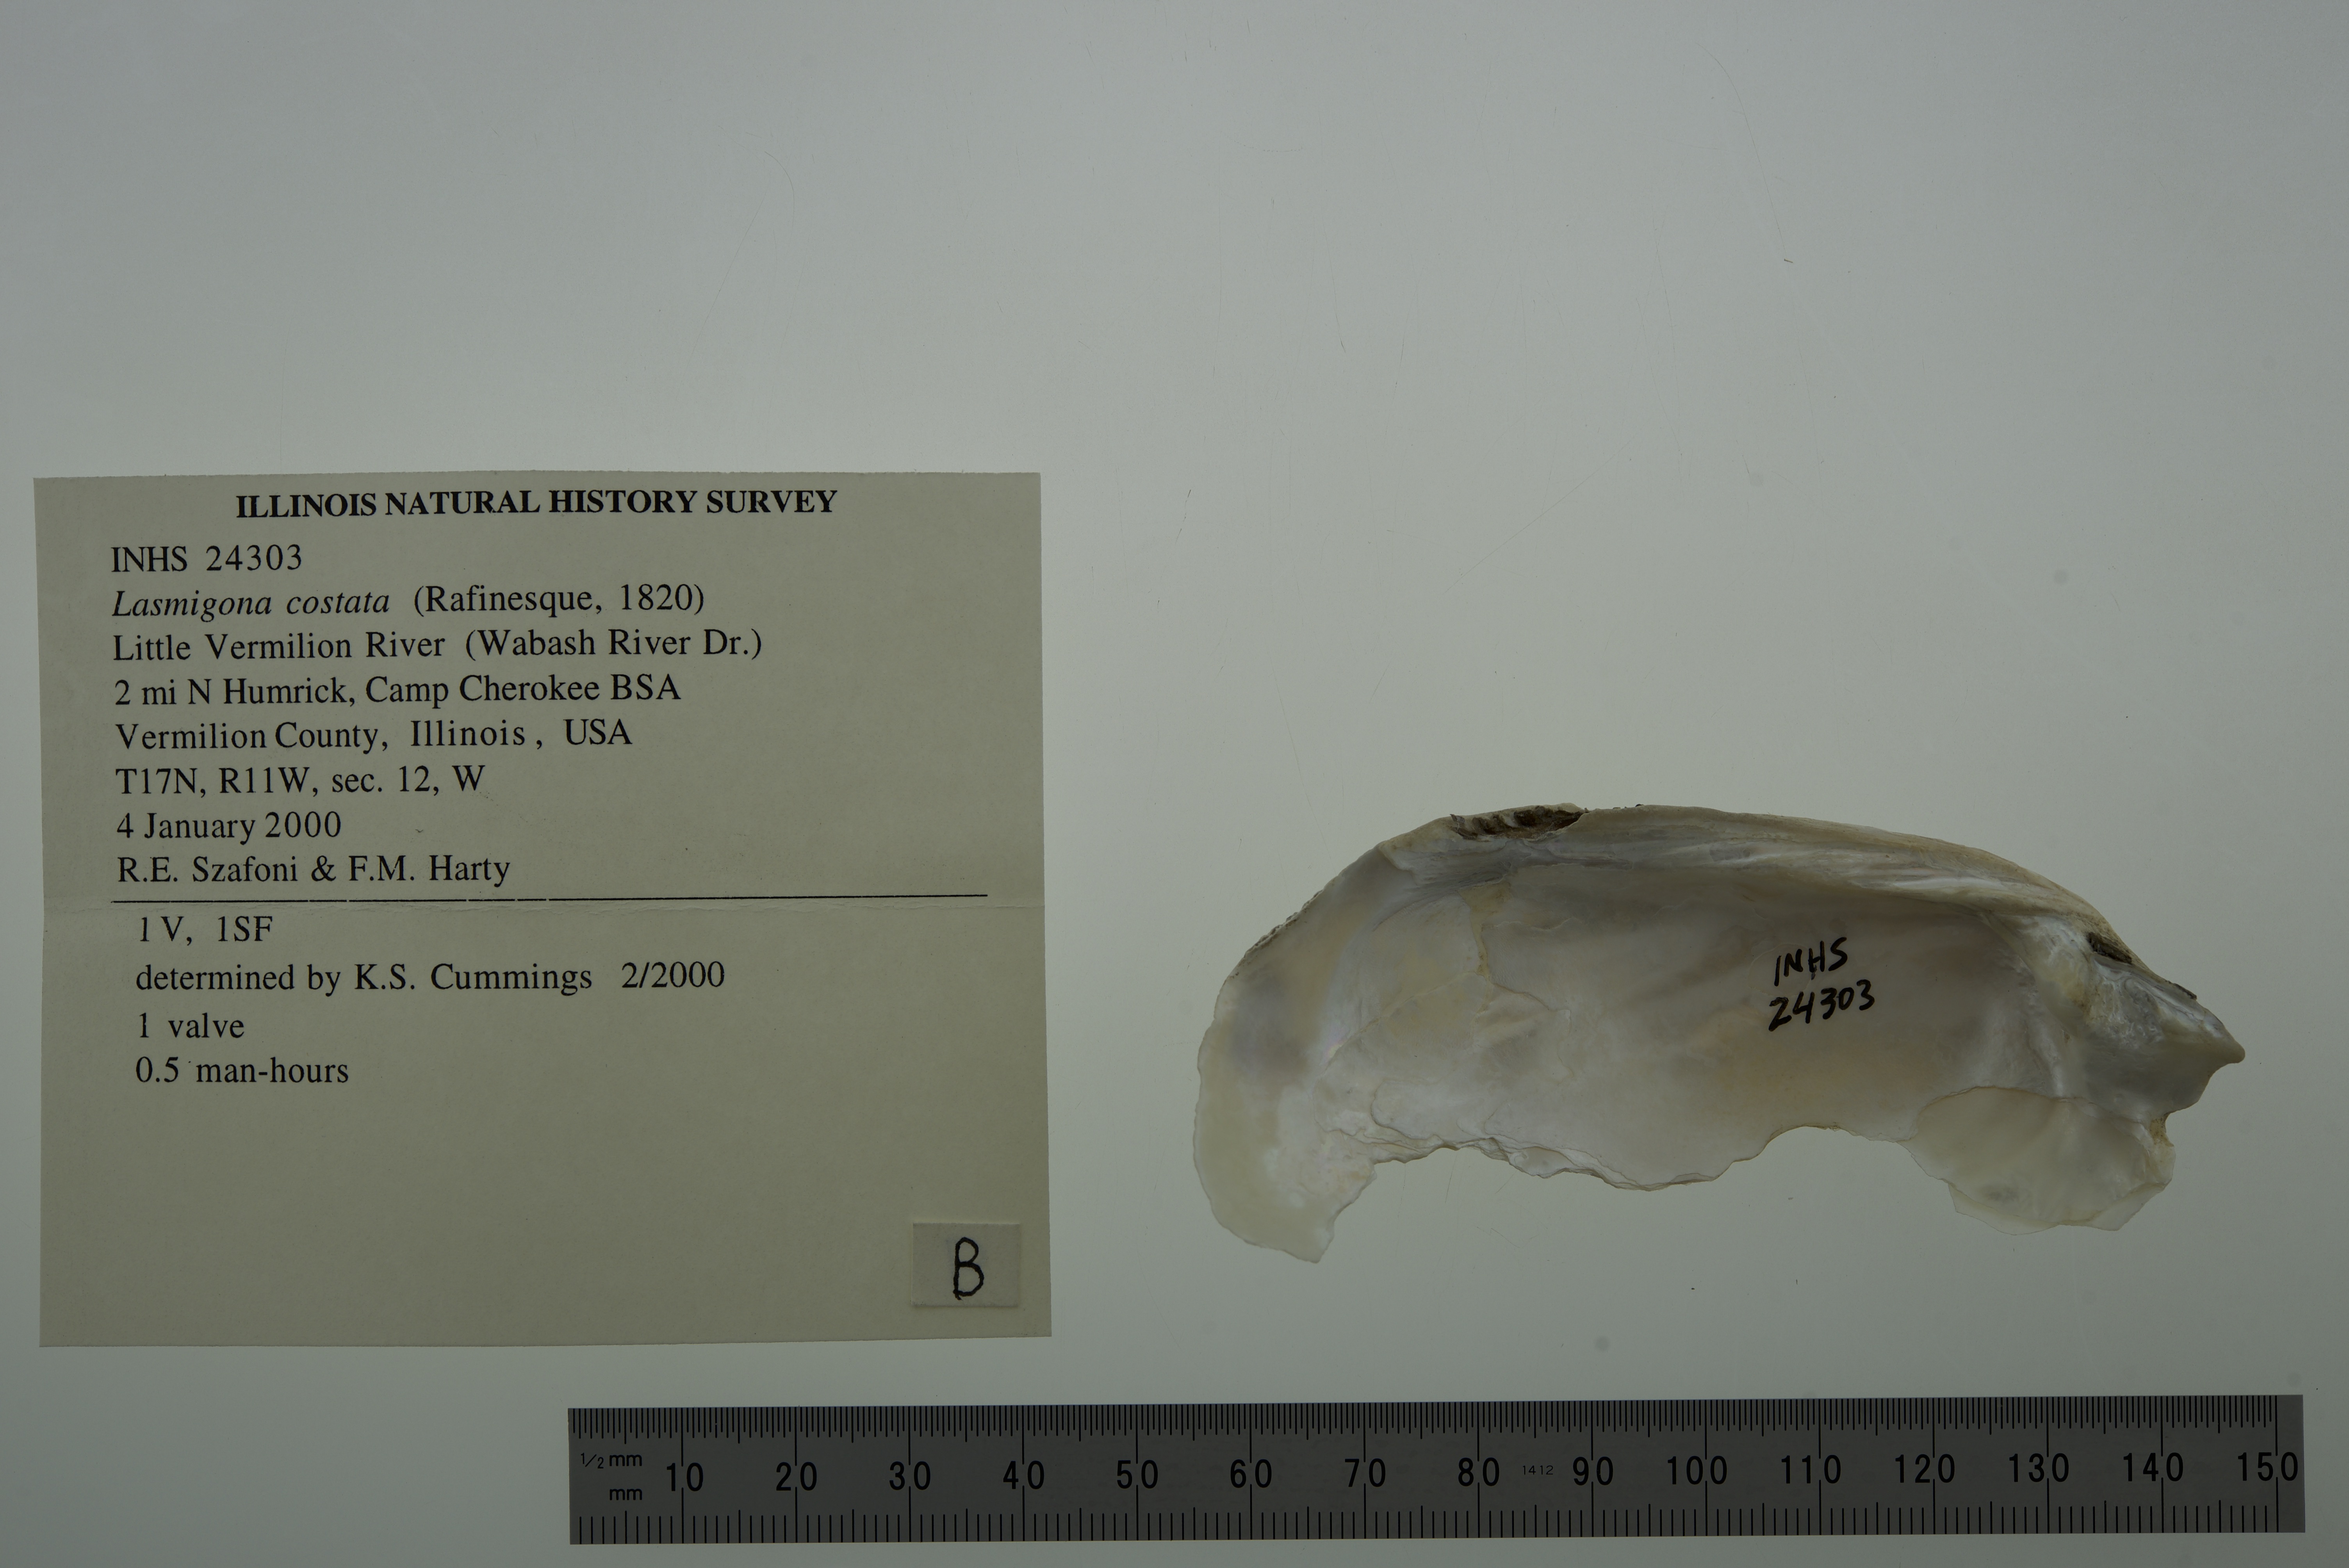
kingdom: Animalia
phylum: Mollusca
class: Bivalvia
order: Unionida
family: Unionidae
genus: Lasmigona
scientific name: Lasmigona costata
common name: Flutedshell
